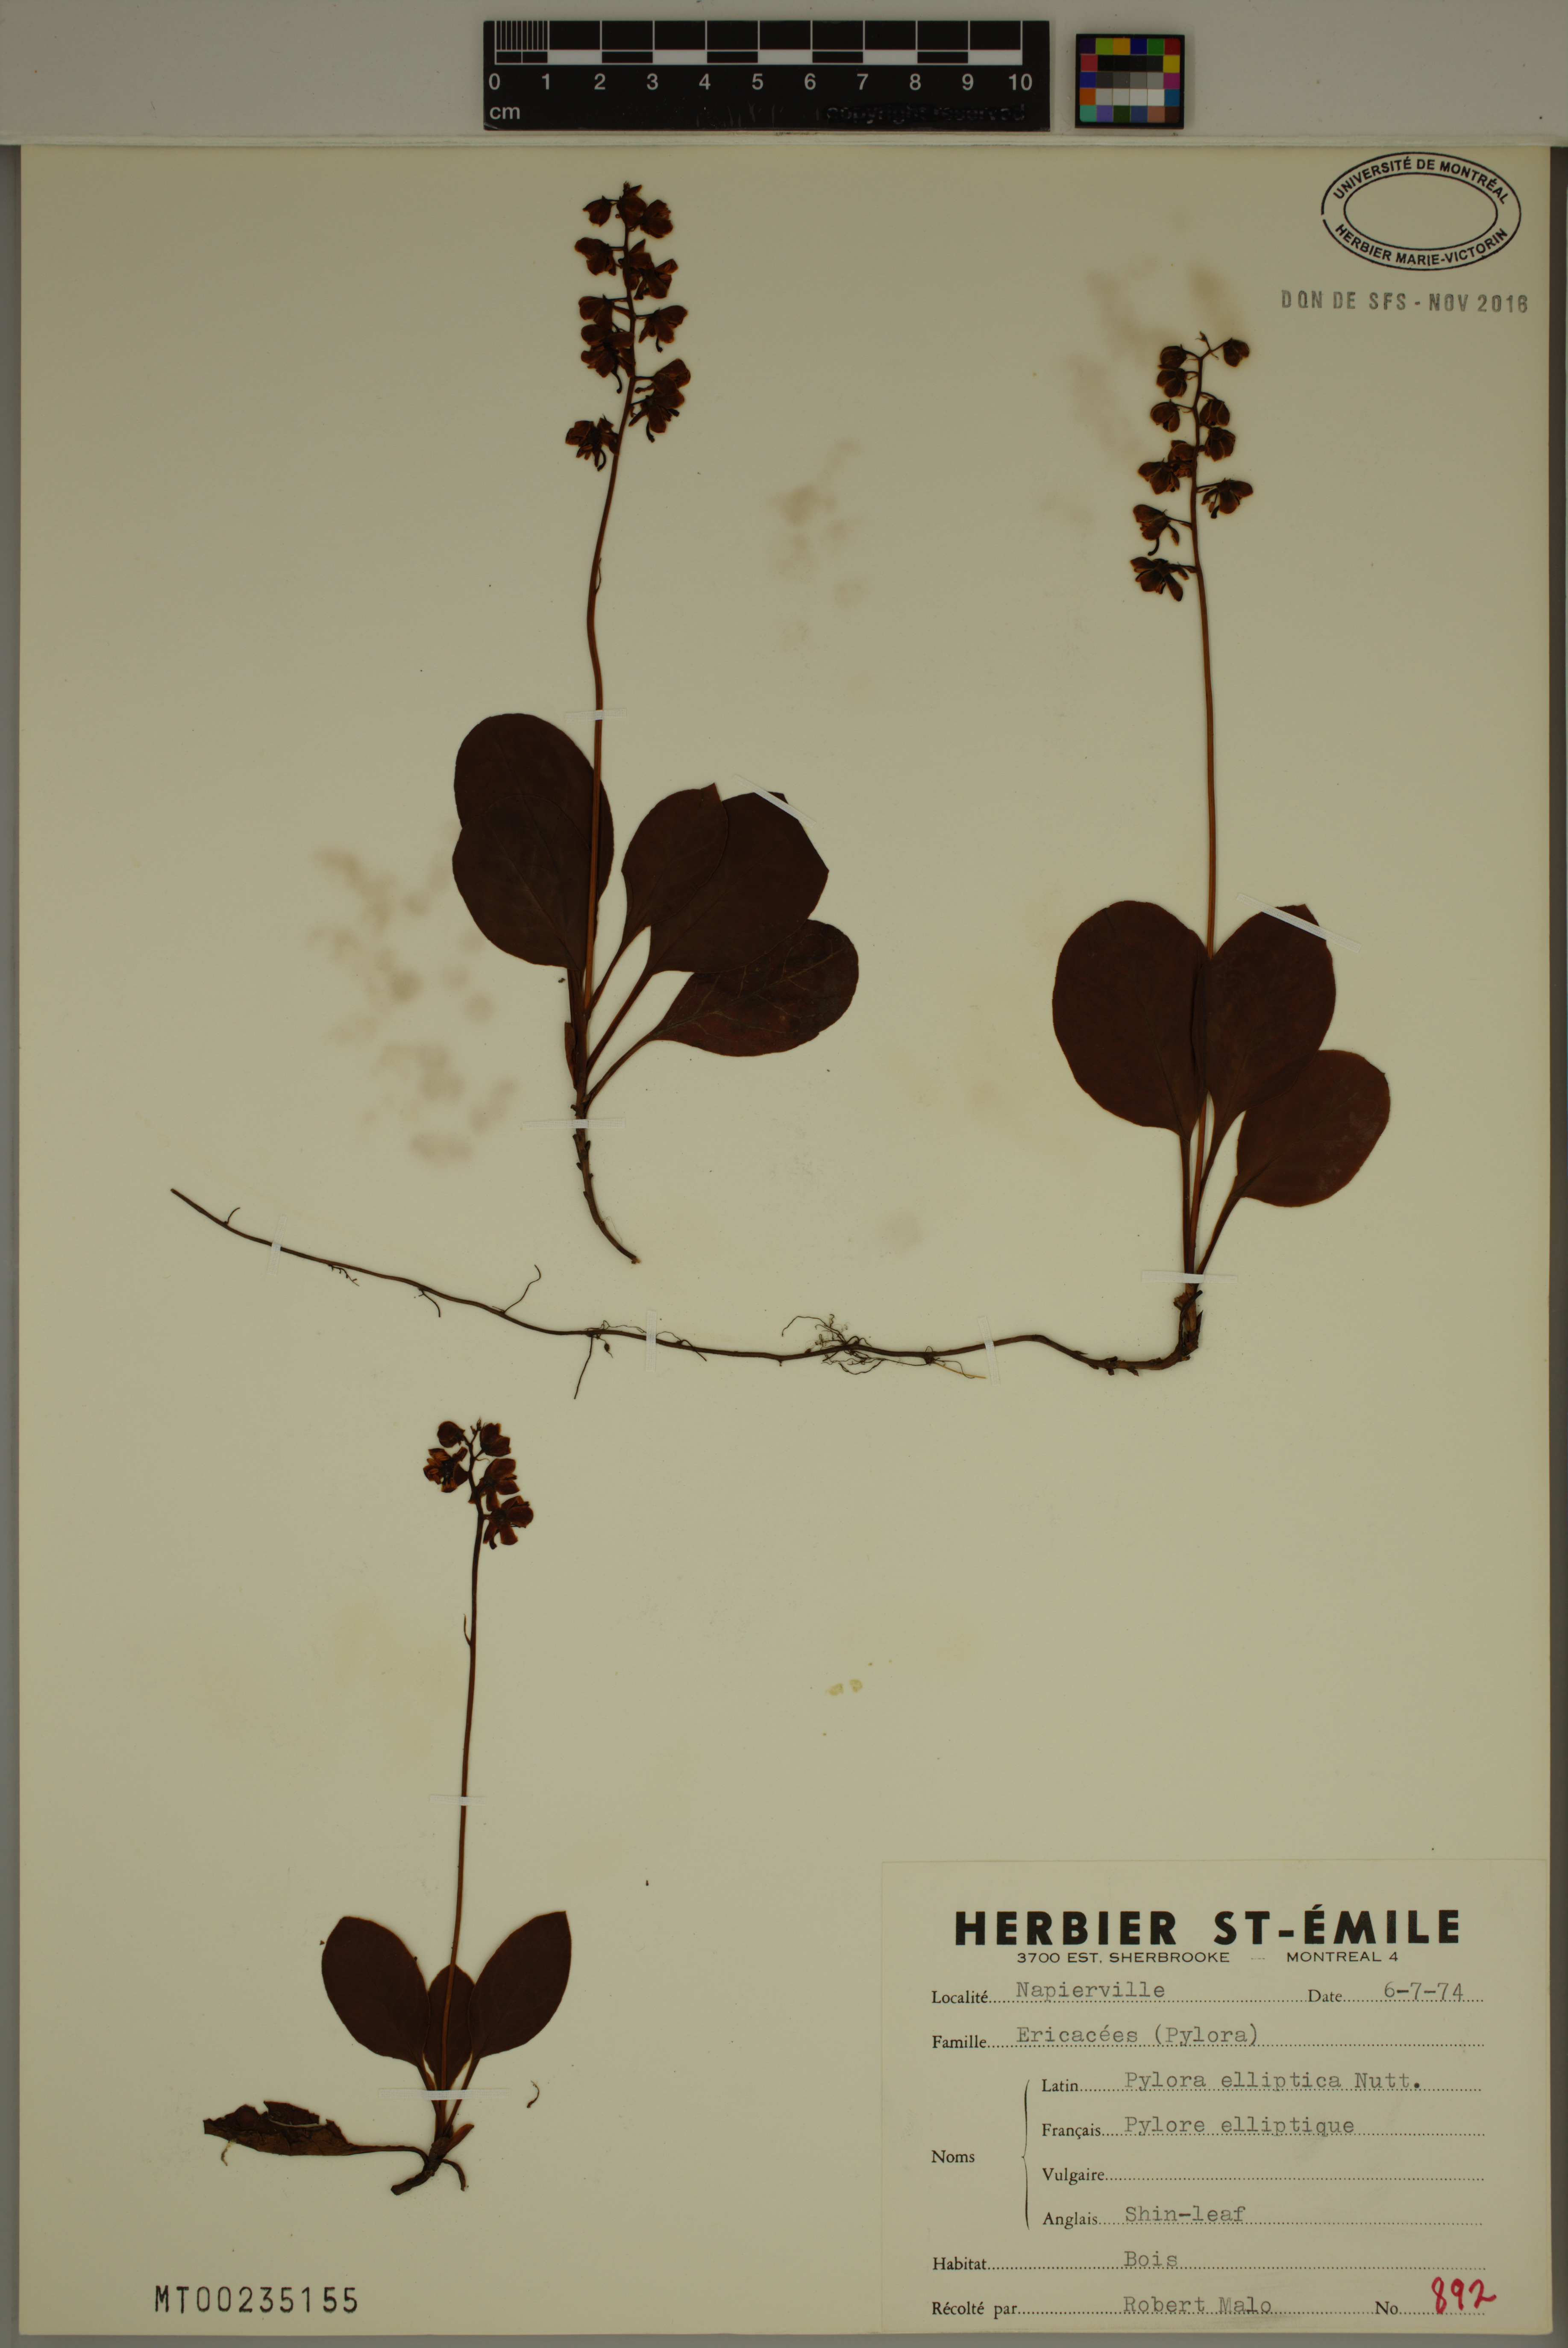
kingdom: Plantae
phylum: Tracheophyta
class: Magnoliopsida
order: Ericales
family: Ericaceae
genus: Pyrola
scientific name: Pyrola elliptica
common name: Shinleaf
